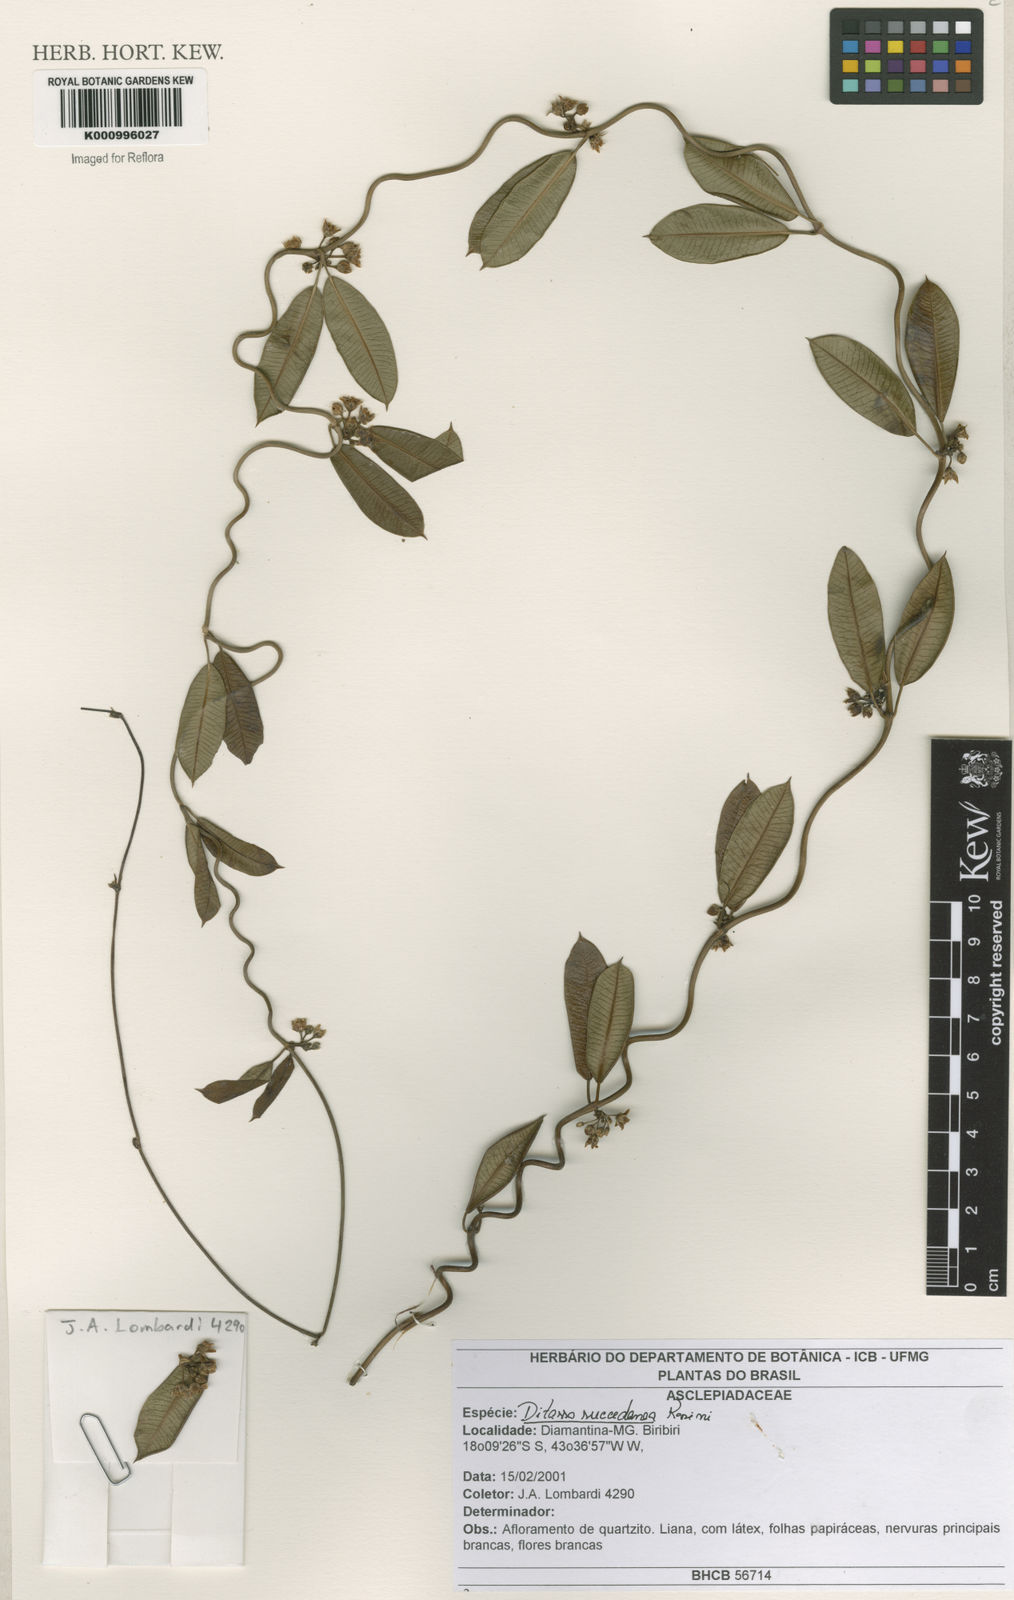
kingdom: Plantae
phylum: Tracheophyta
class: Magnoliopsida
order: Gentianales
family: Apocynaceae
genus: Ditassa
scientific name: Ditassa succedanea
